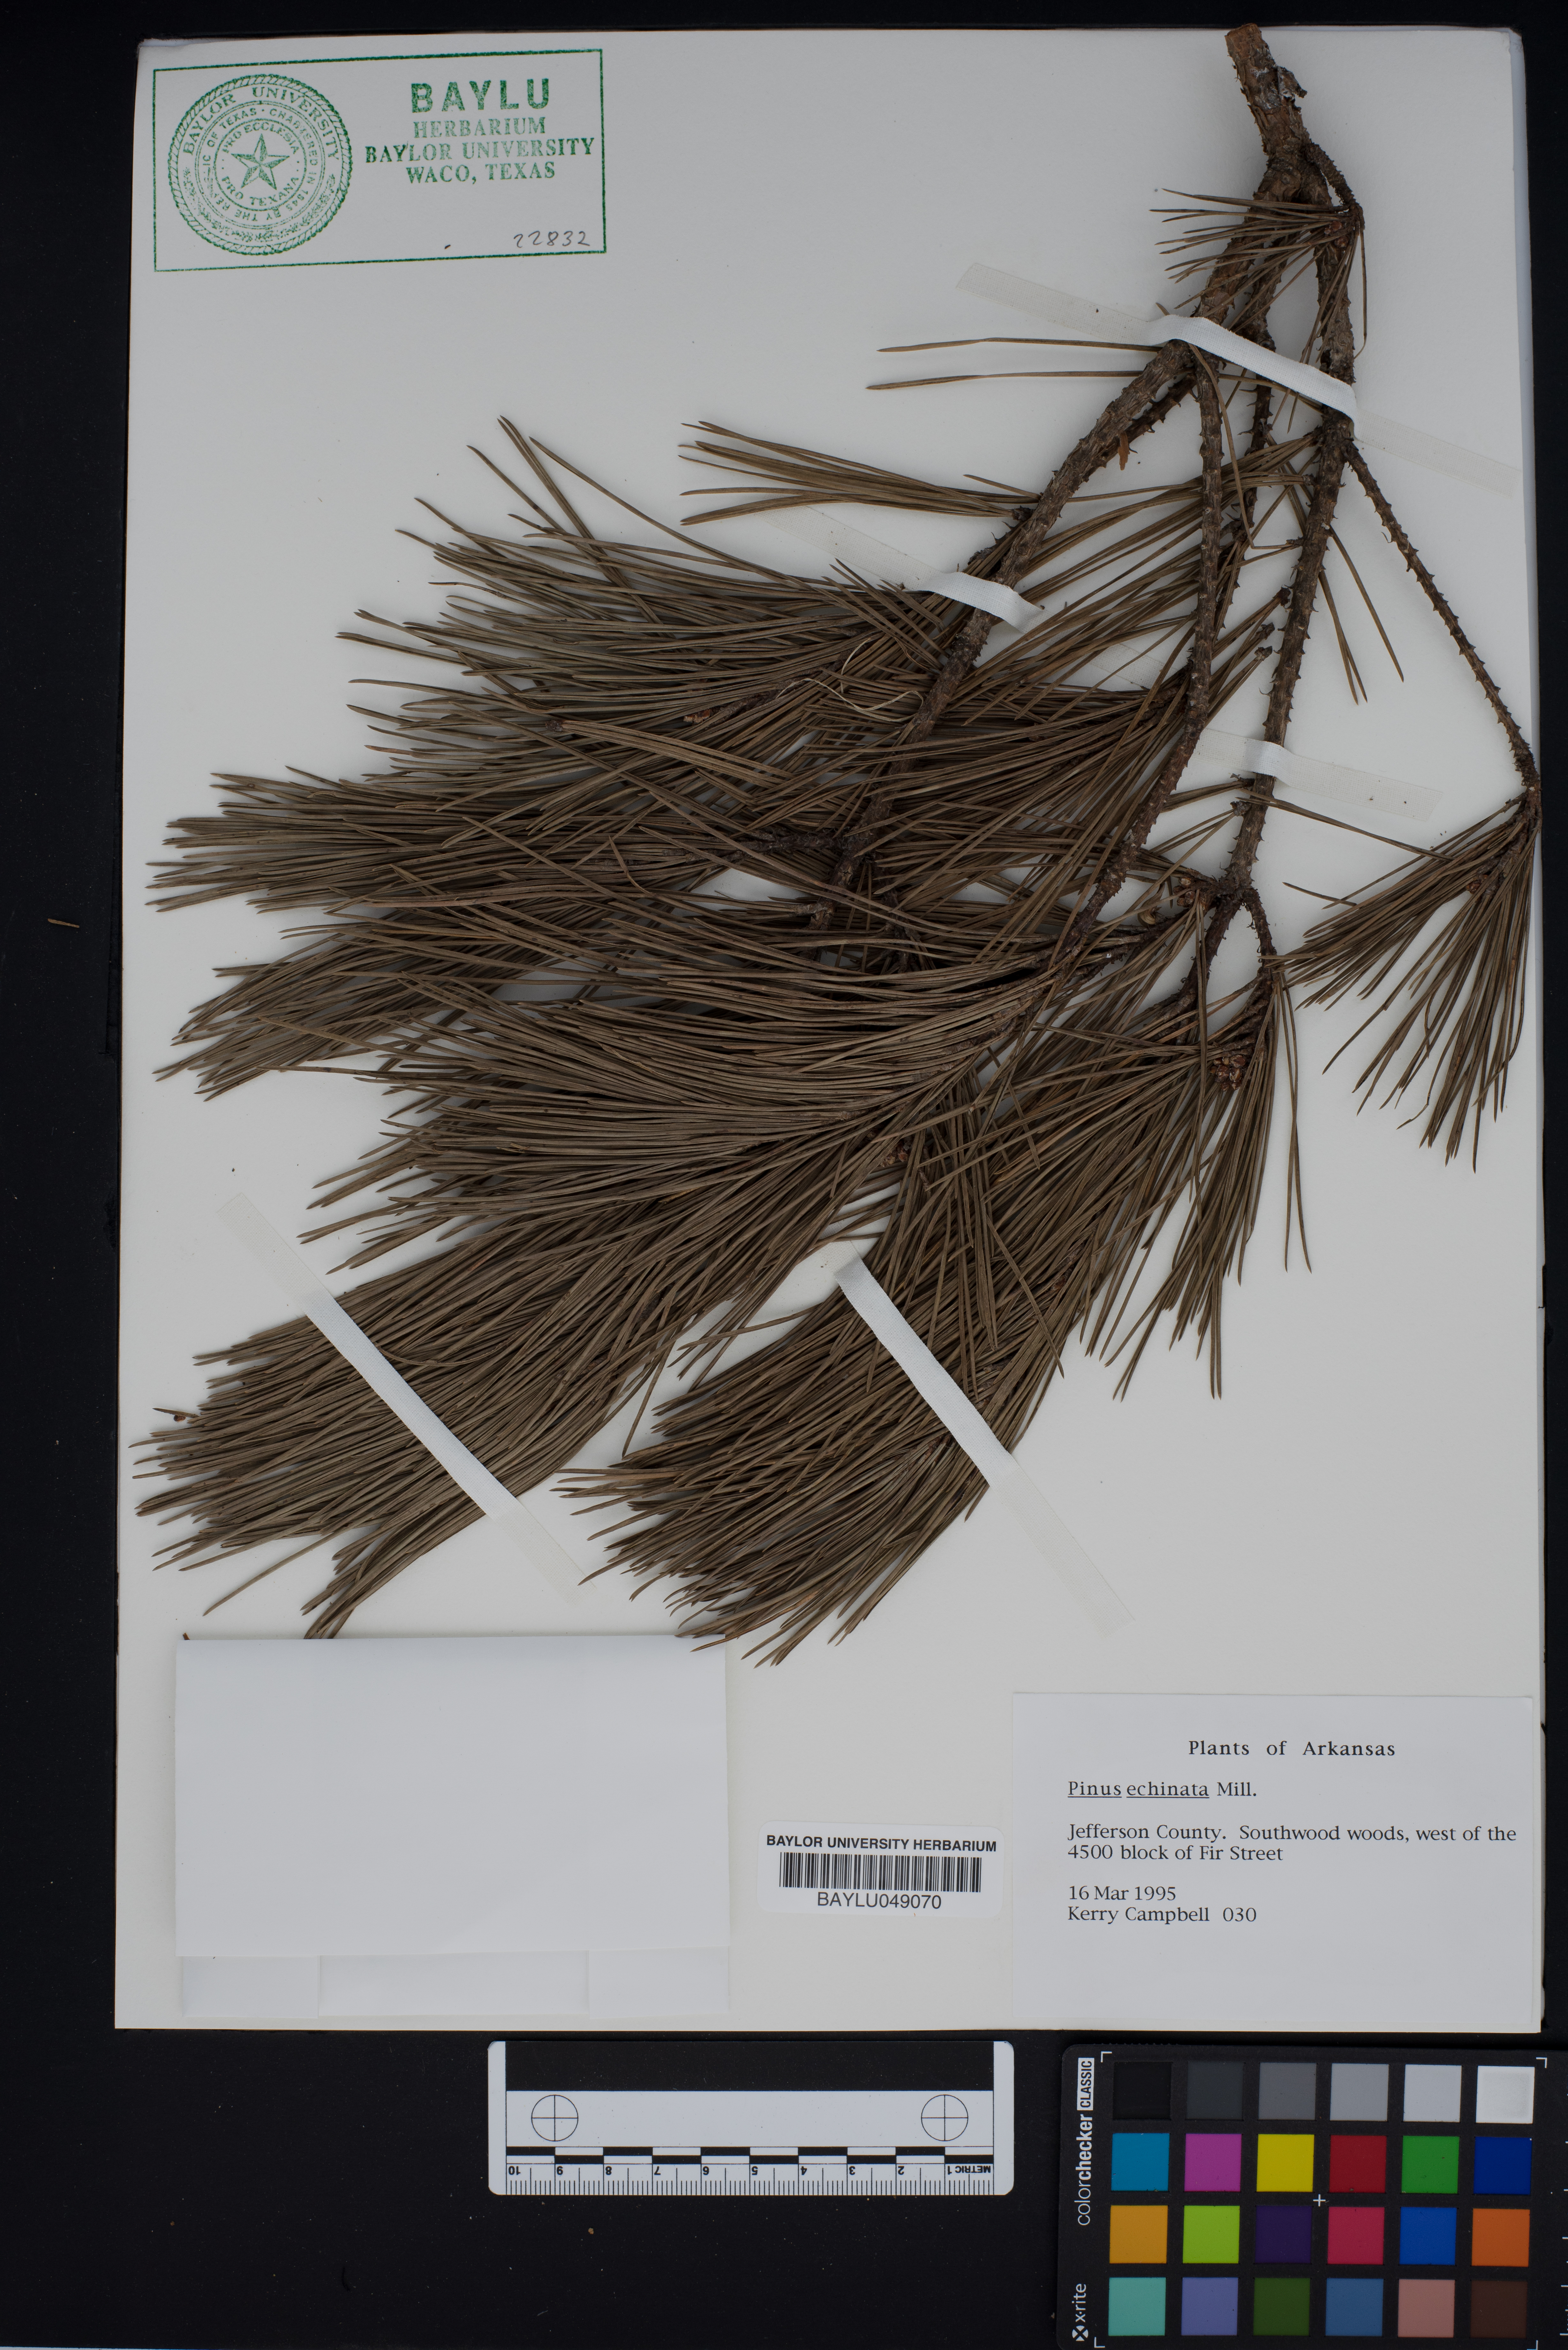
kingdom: Plantae
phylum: Tracheophyta
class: Pinopsida
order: Pinales
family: Pinaceae
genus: Pinus
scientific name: Pinus echinata
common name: Shortleaf pine
